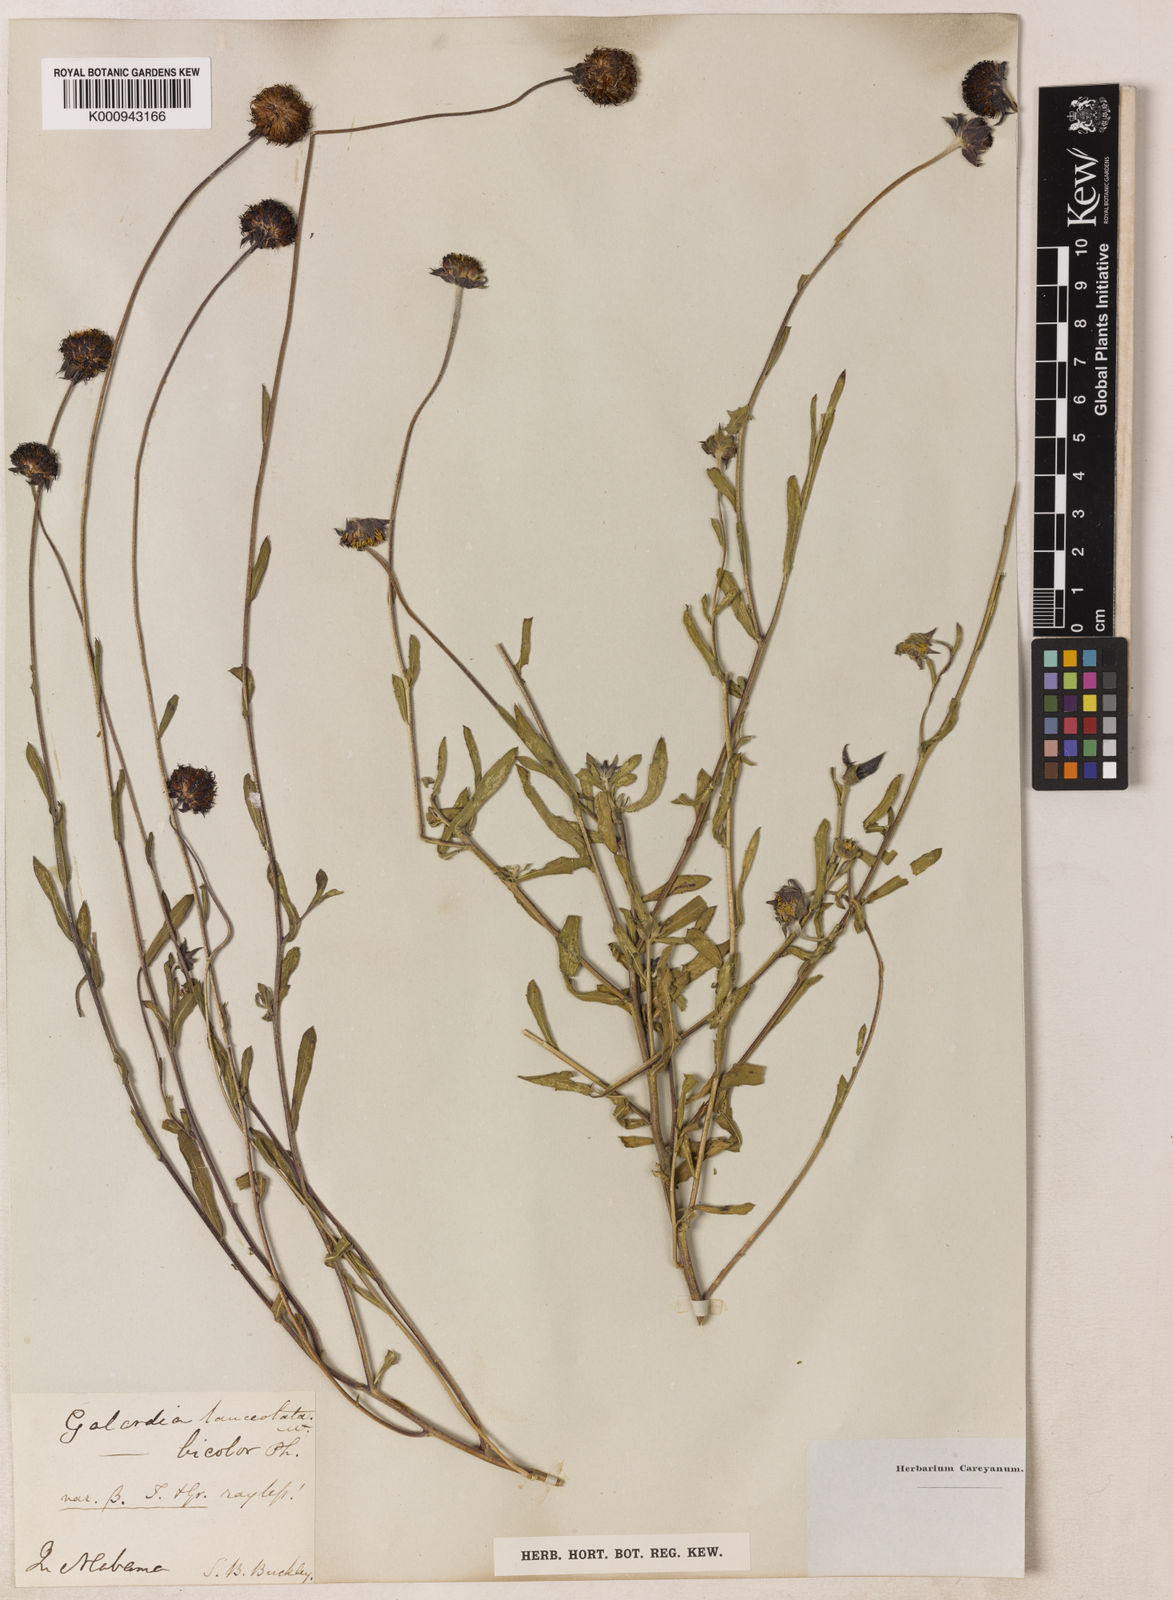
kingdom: Plantae
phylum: Tracheophyta
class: Magnoliopsida
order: Asterales
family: Asteraceae
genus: Gaillardia
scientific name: Gaillardia aestivalis
